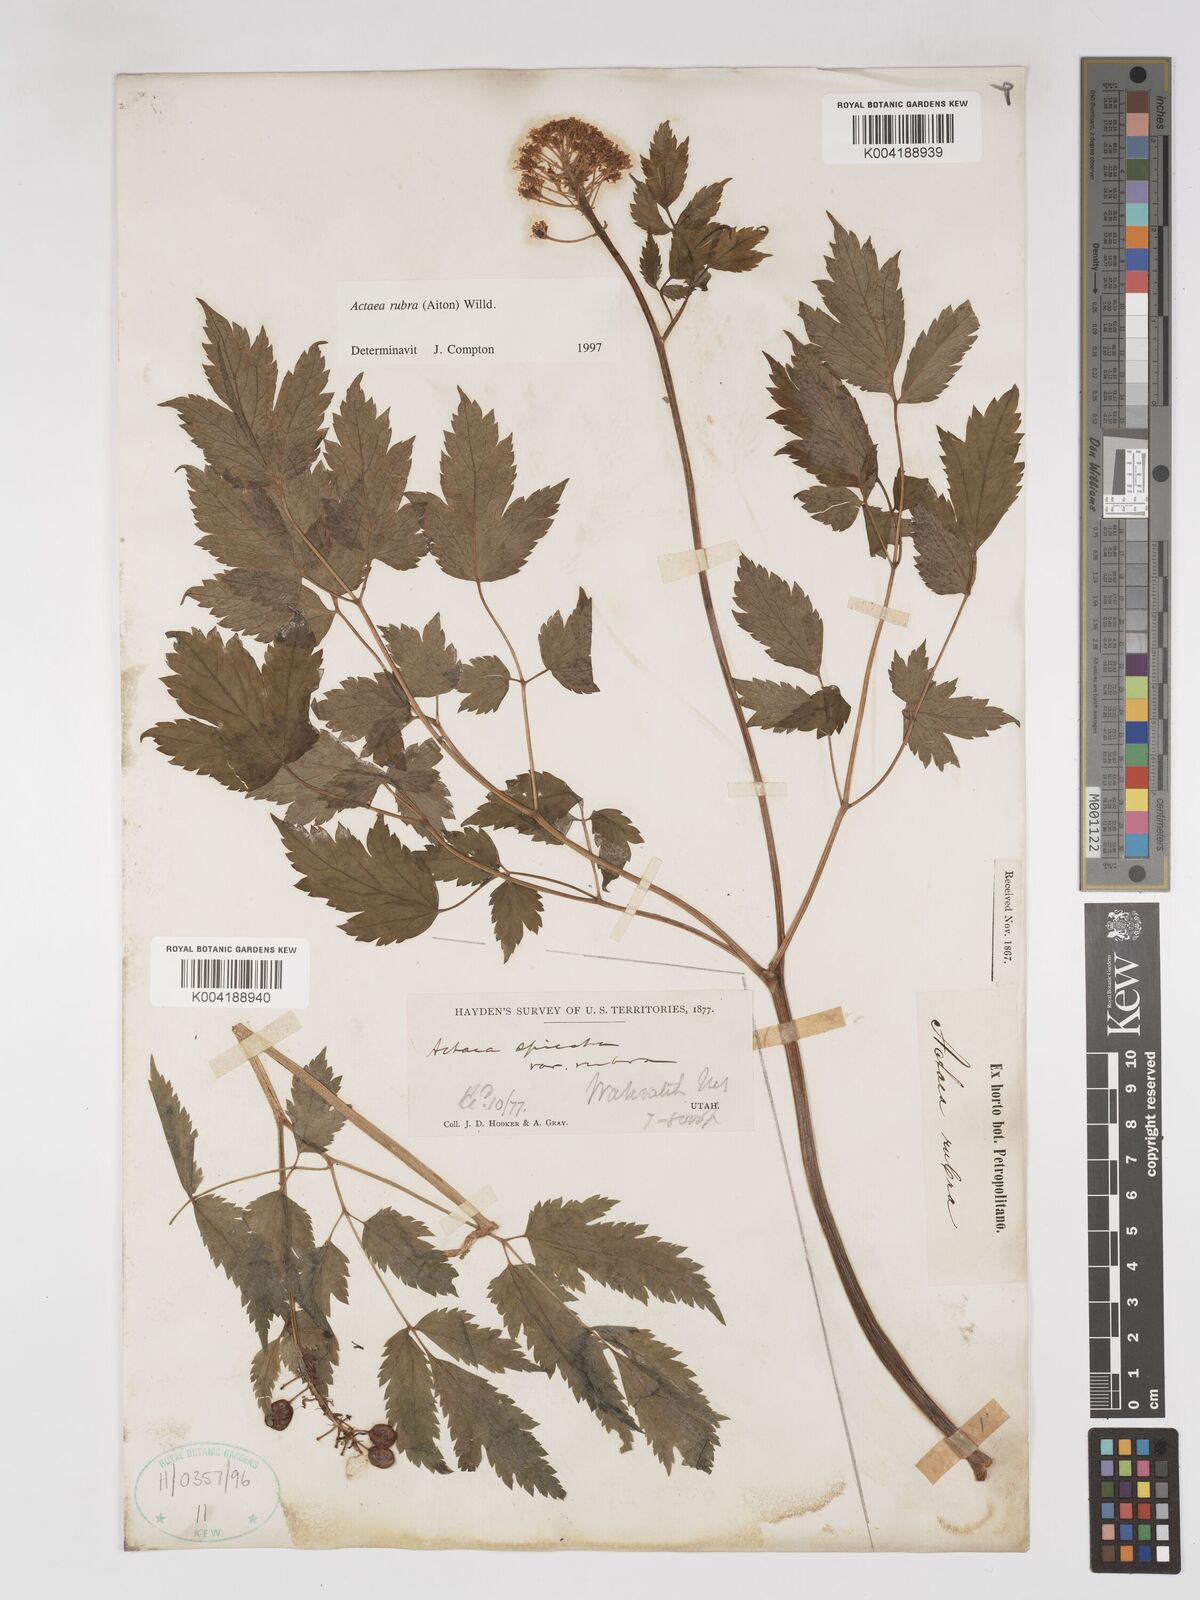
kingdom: Plantae
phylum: Tracheophyta
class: Magnoliopsida
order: Ranunculales
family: Ranunculaceae
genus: Actaea
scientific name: Actaea rubra
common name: Red baneberry
